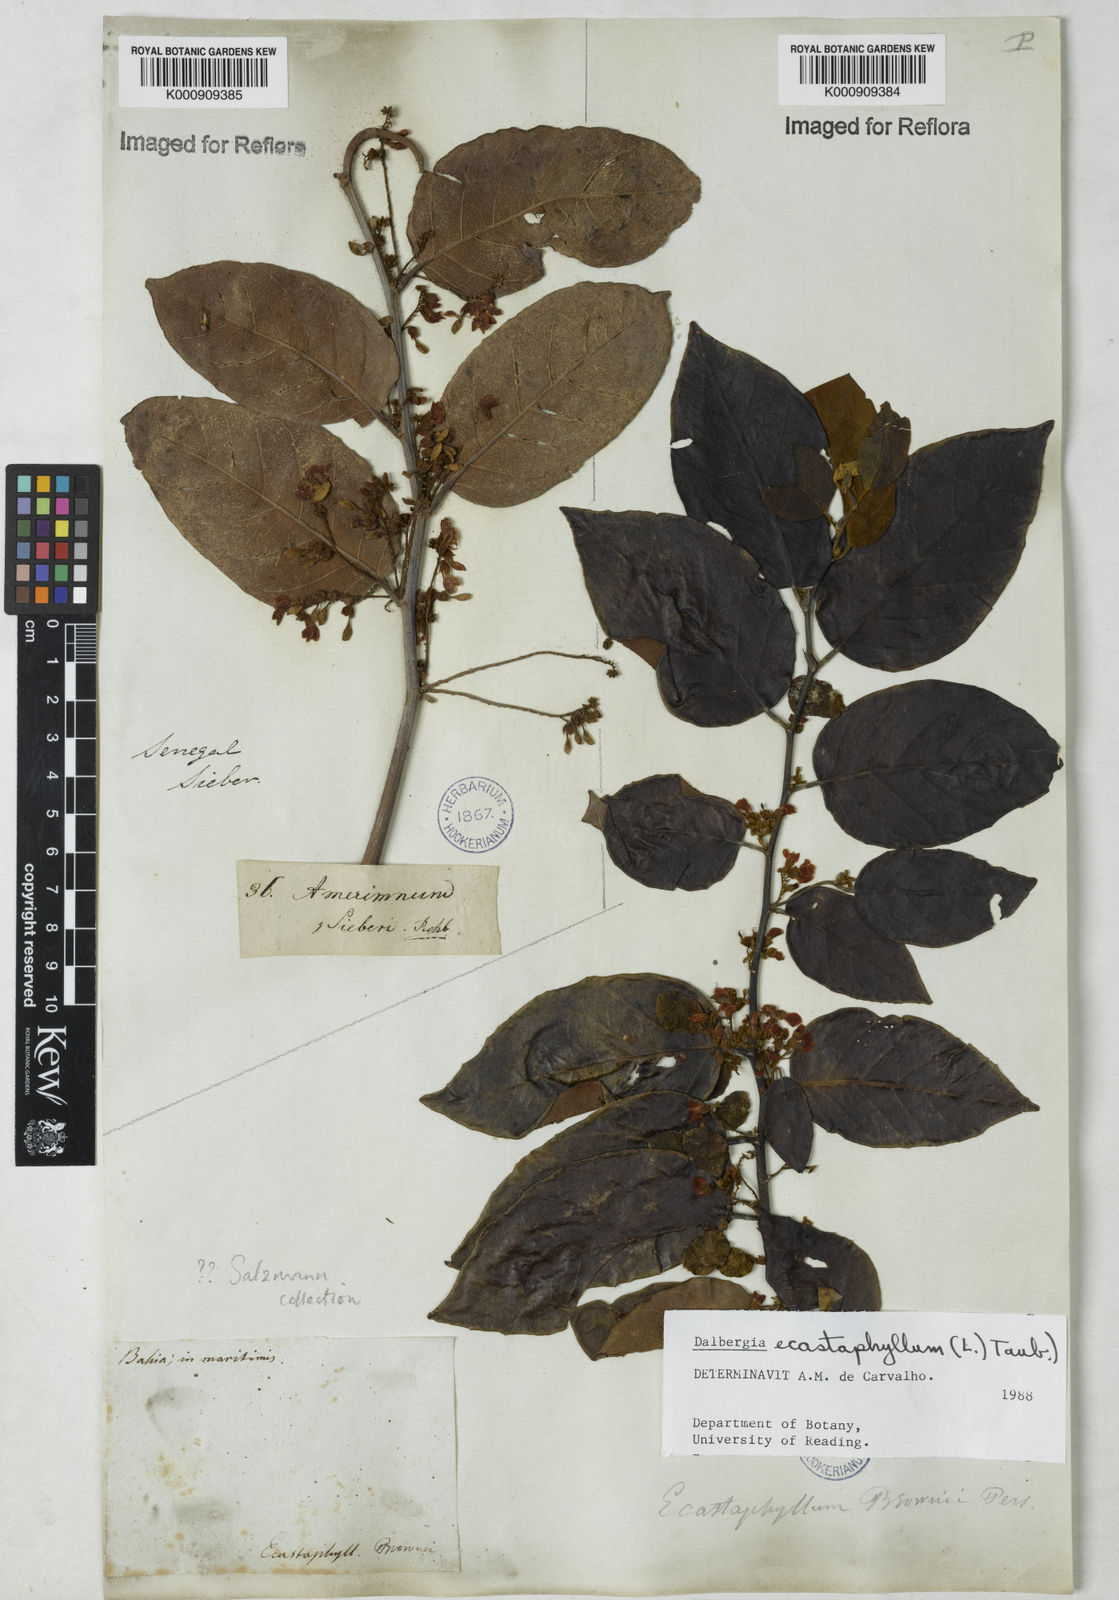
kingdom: Plantae
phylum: Tracheophyta
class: Magnoliopsida
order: Fabales
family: Fabaceae
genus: Dalbergia
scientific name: Dalbergia ecastaphyllum
